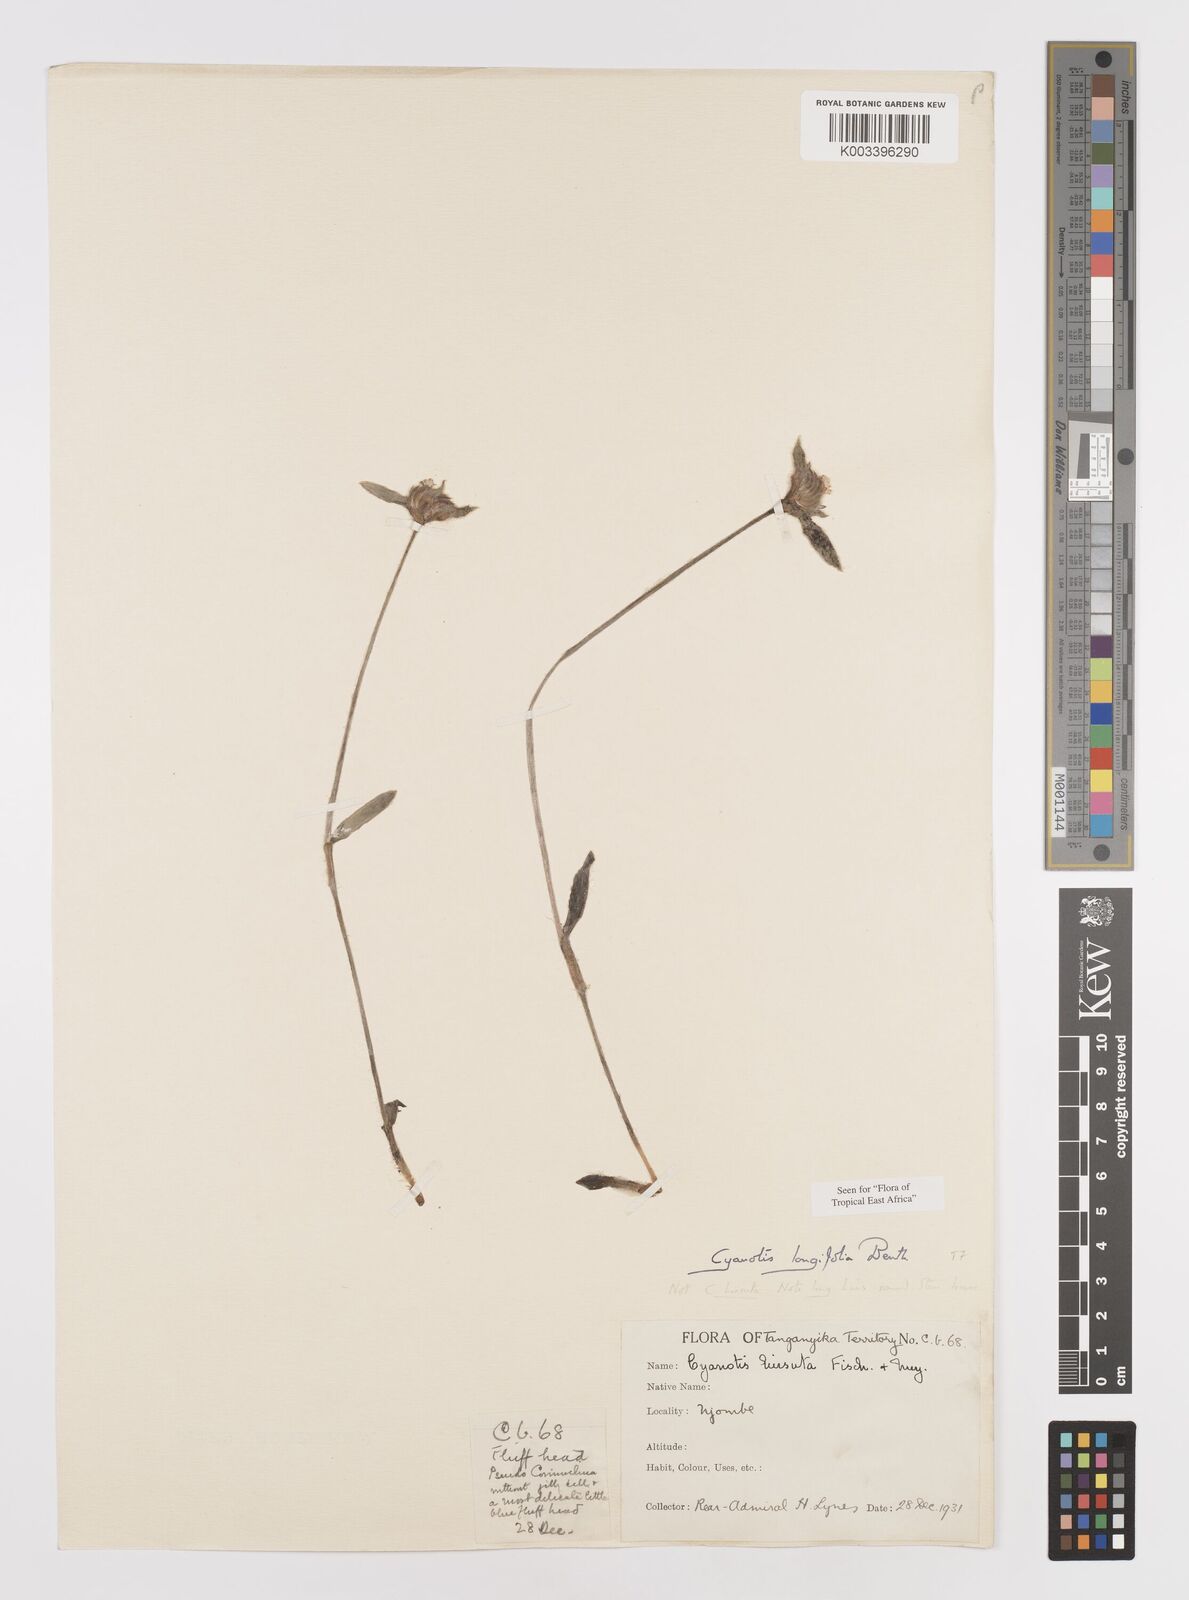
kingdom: Plantae
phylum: Tracheophyta
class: Liliopsida
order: Commelinales
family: Commelinaceae
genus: Cyanotis
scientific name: Cyanotis longifolia
